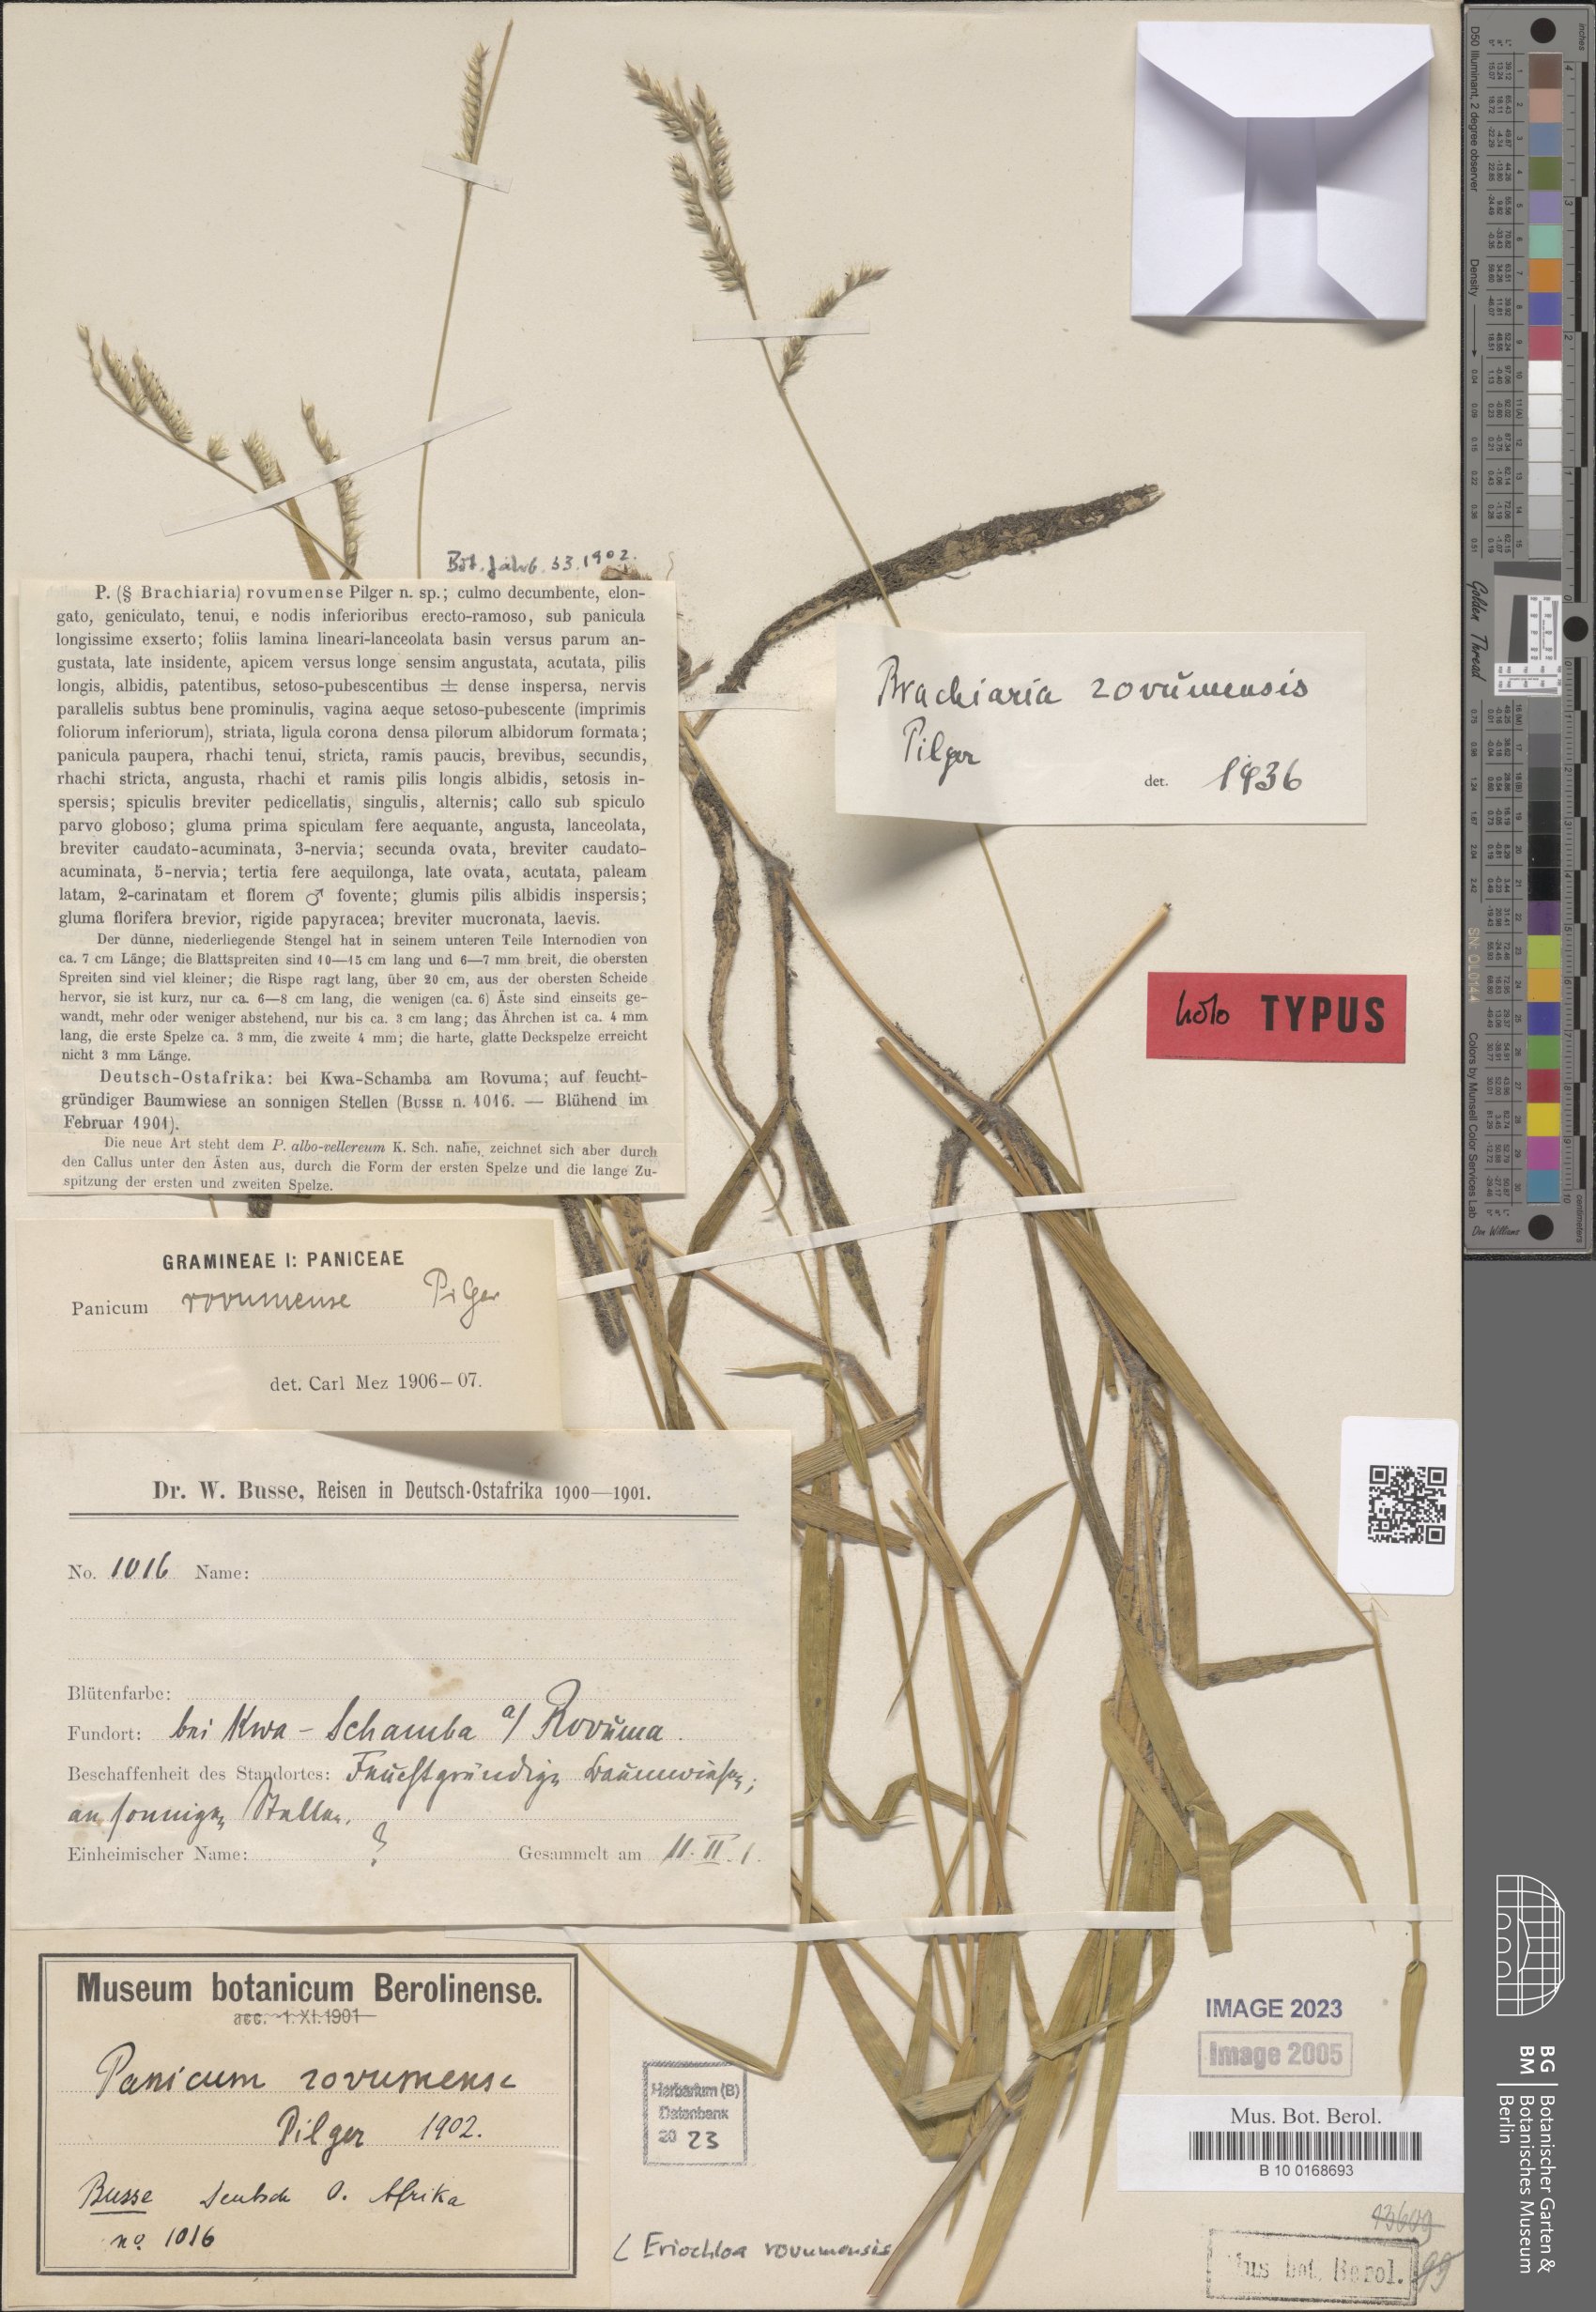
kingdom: Plantae
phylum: Tracheophyta
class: Liliopsida
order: Poales
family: Poaceae
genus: Eriochloa
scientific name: Eriochloa rovumensis
